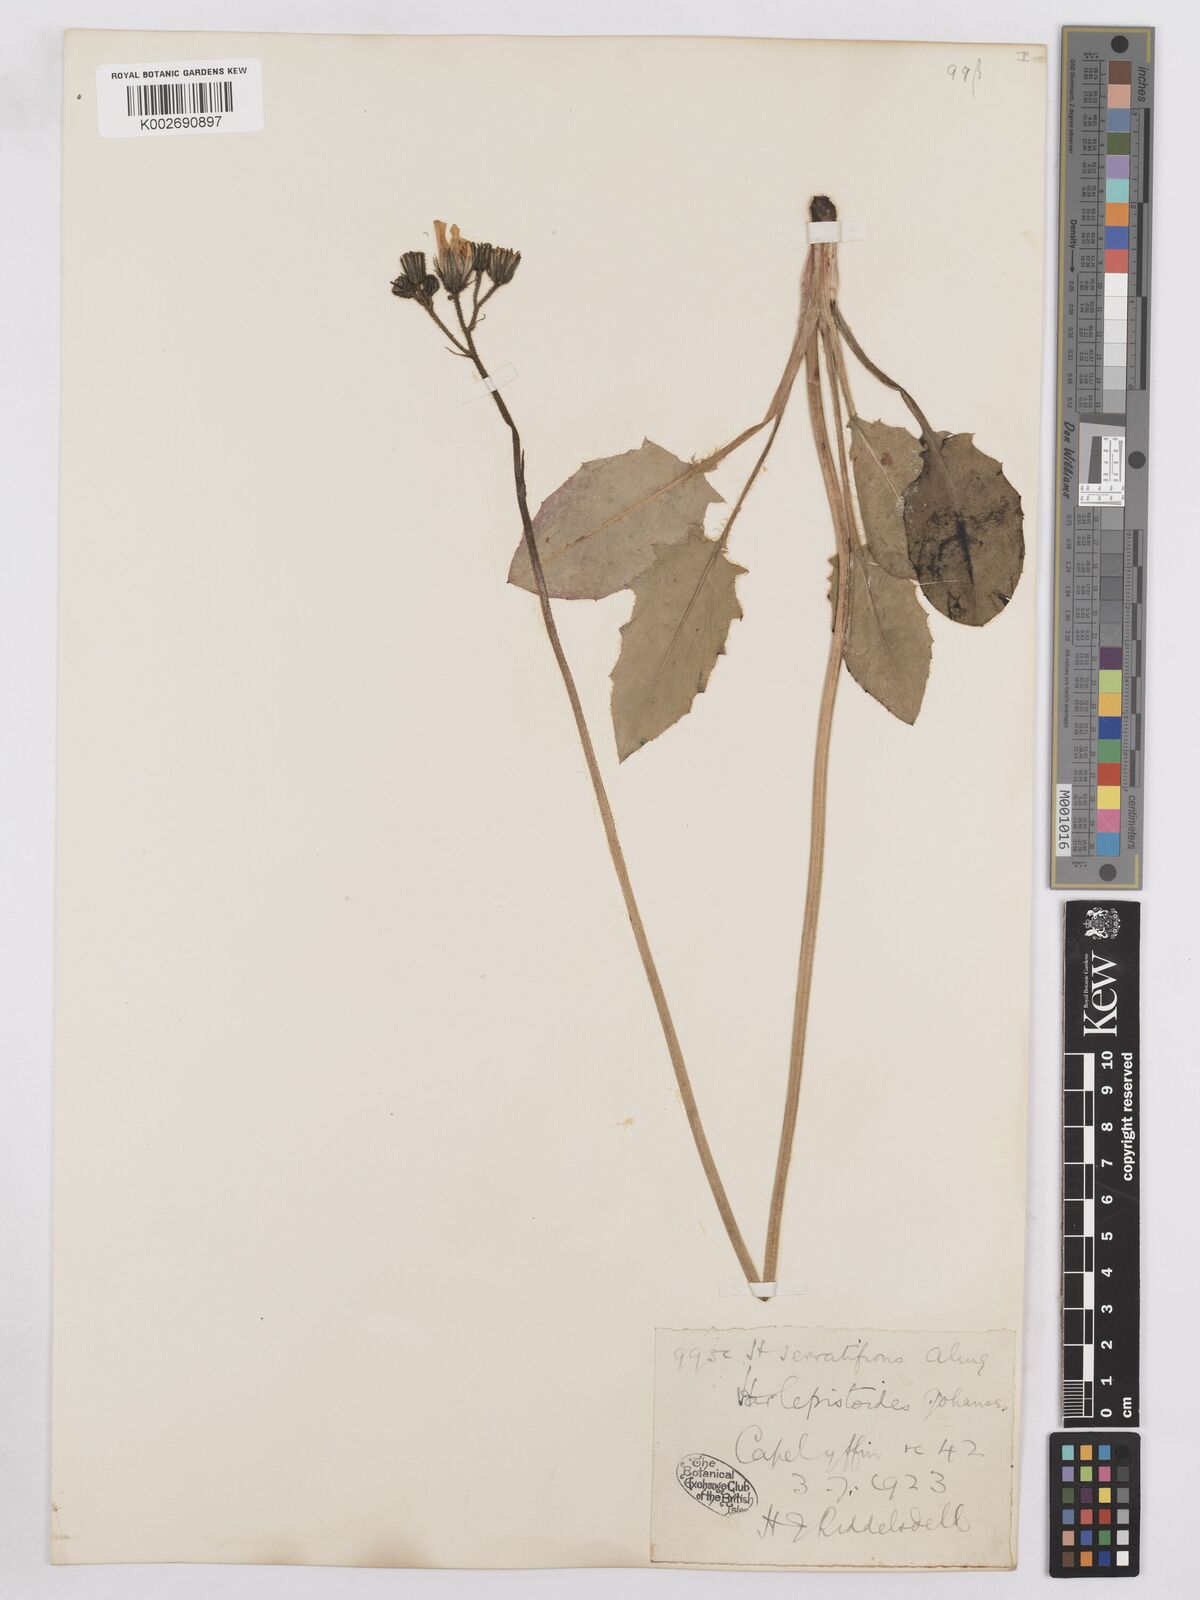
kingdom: Plantae
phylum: Tracheophyta
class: Magnoliopsida
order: Asterales
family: Asteraceae
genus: Hieracium
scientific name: Hieracium murorum
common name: Wall hawkweed
